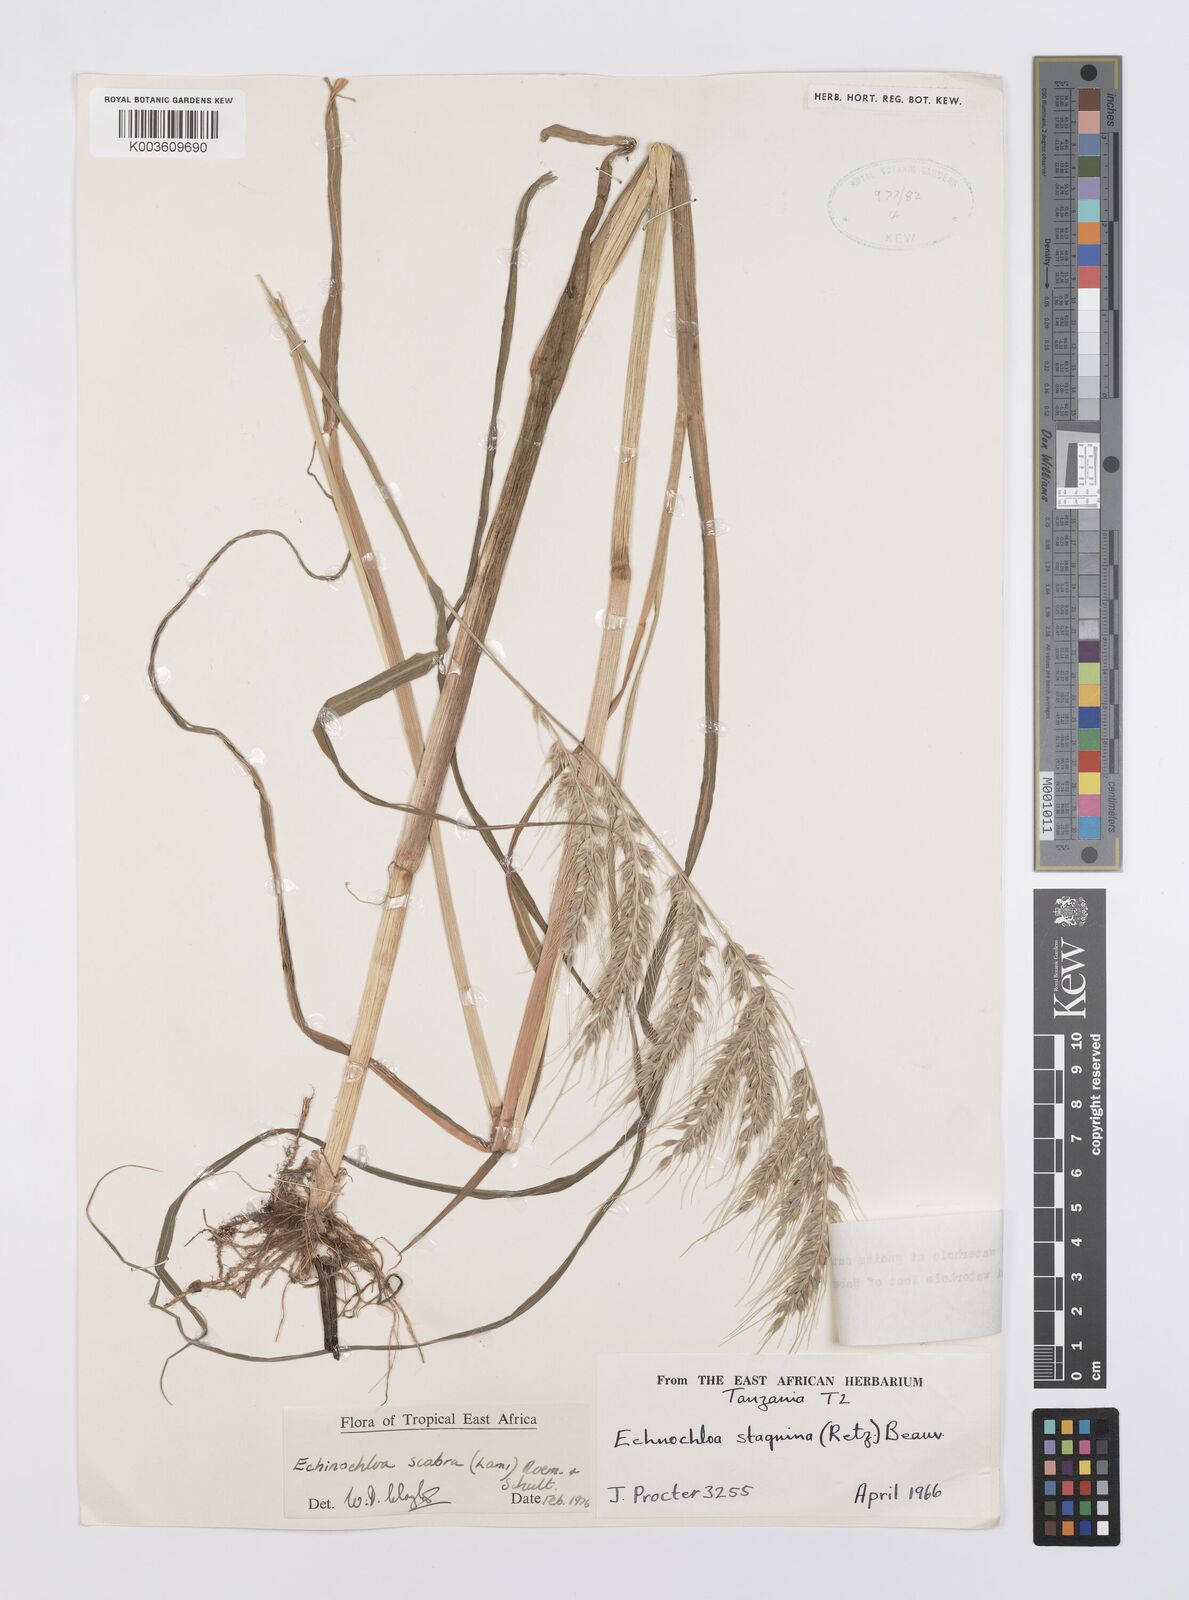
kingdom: Plantae
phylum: Tracheophyta
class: Liliopsida
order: Poales
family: Poaceae
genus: Echinochloa
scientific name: Echinochloa stagnina
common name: Burgu grass
